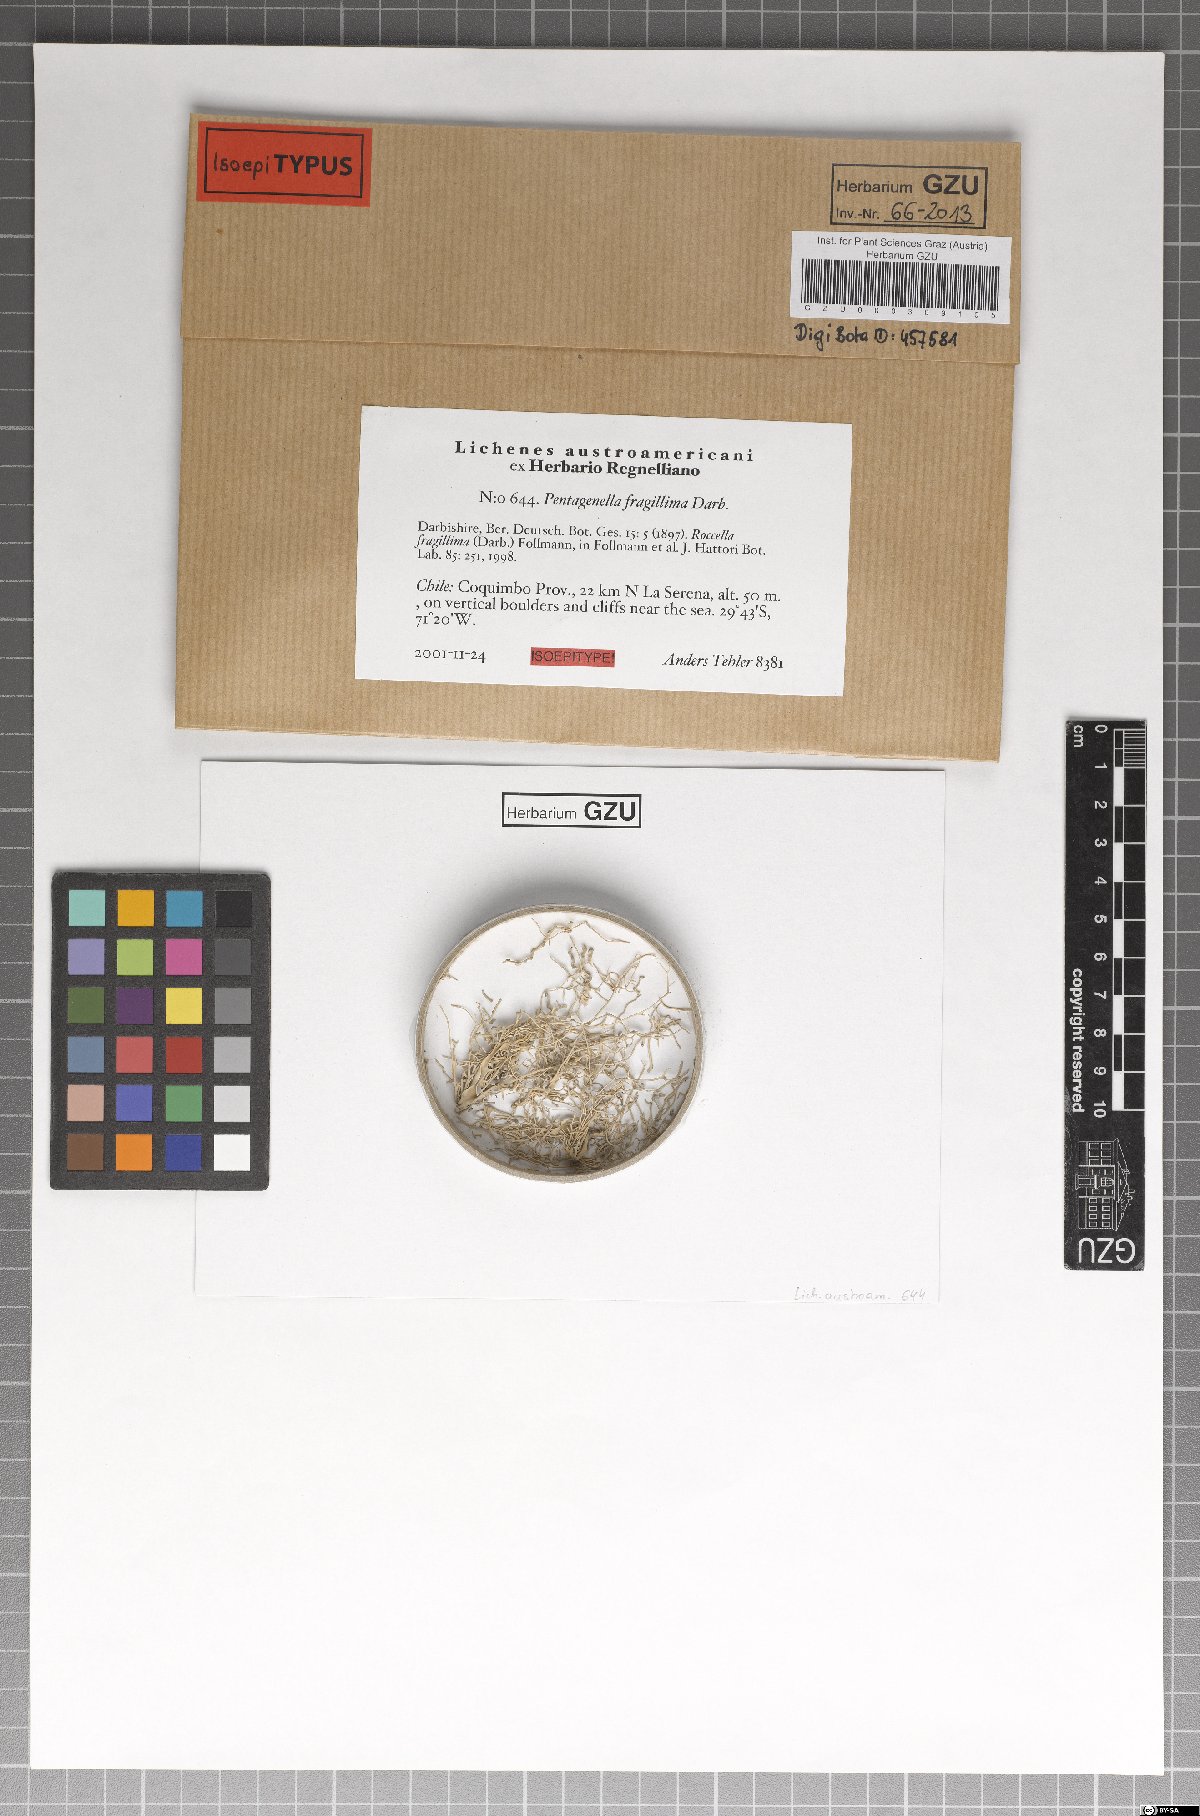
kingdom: Fungi
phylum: Ascomycota
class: Arthoniomycetes
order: Arthoniales
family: Opegraphaceae
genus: Pentagenella
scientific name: Pentagenella fragillima
